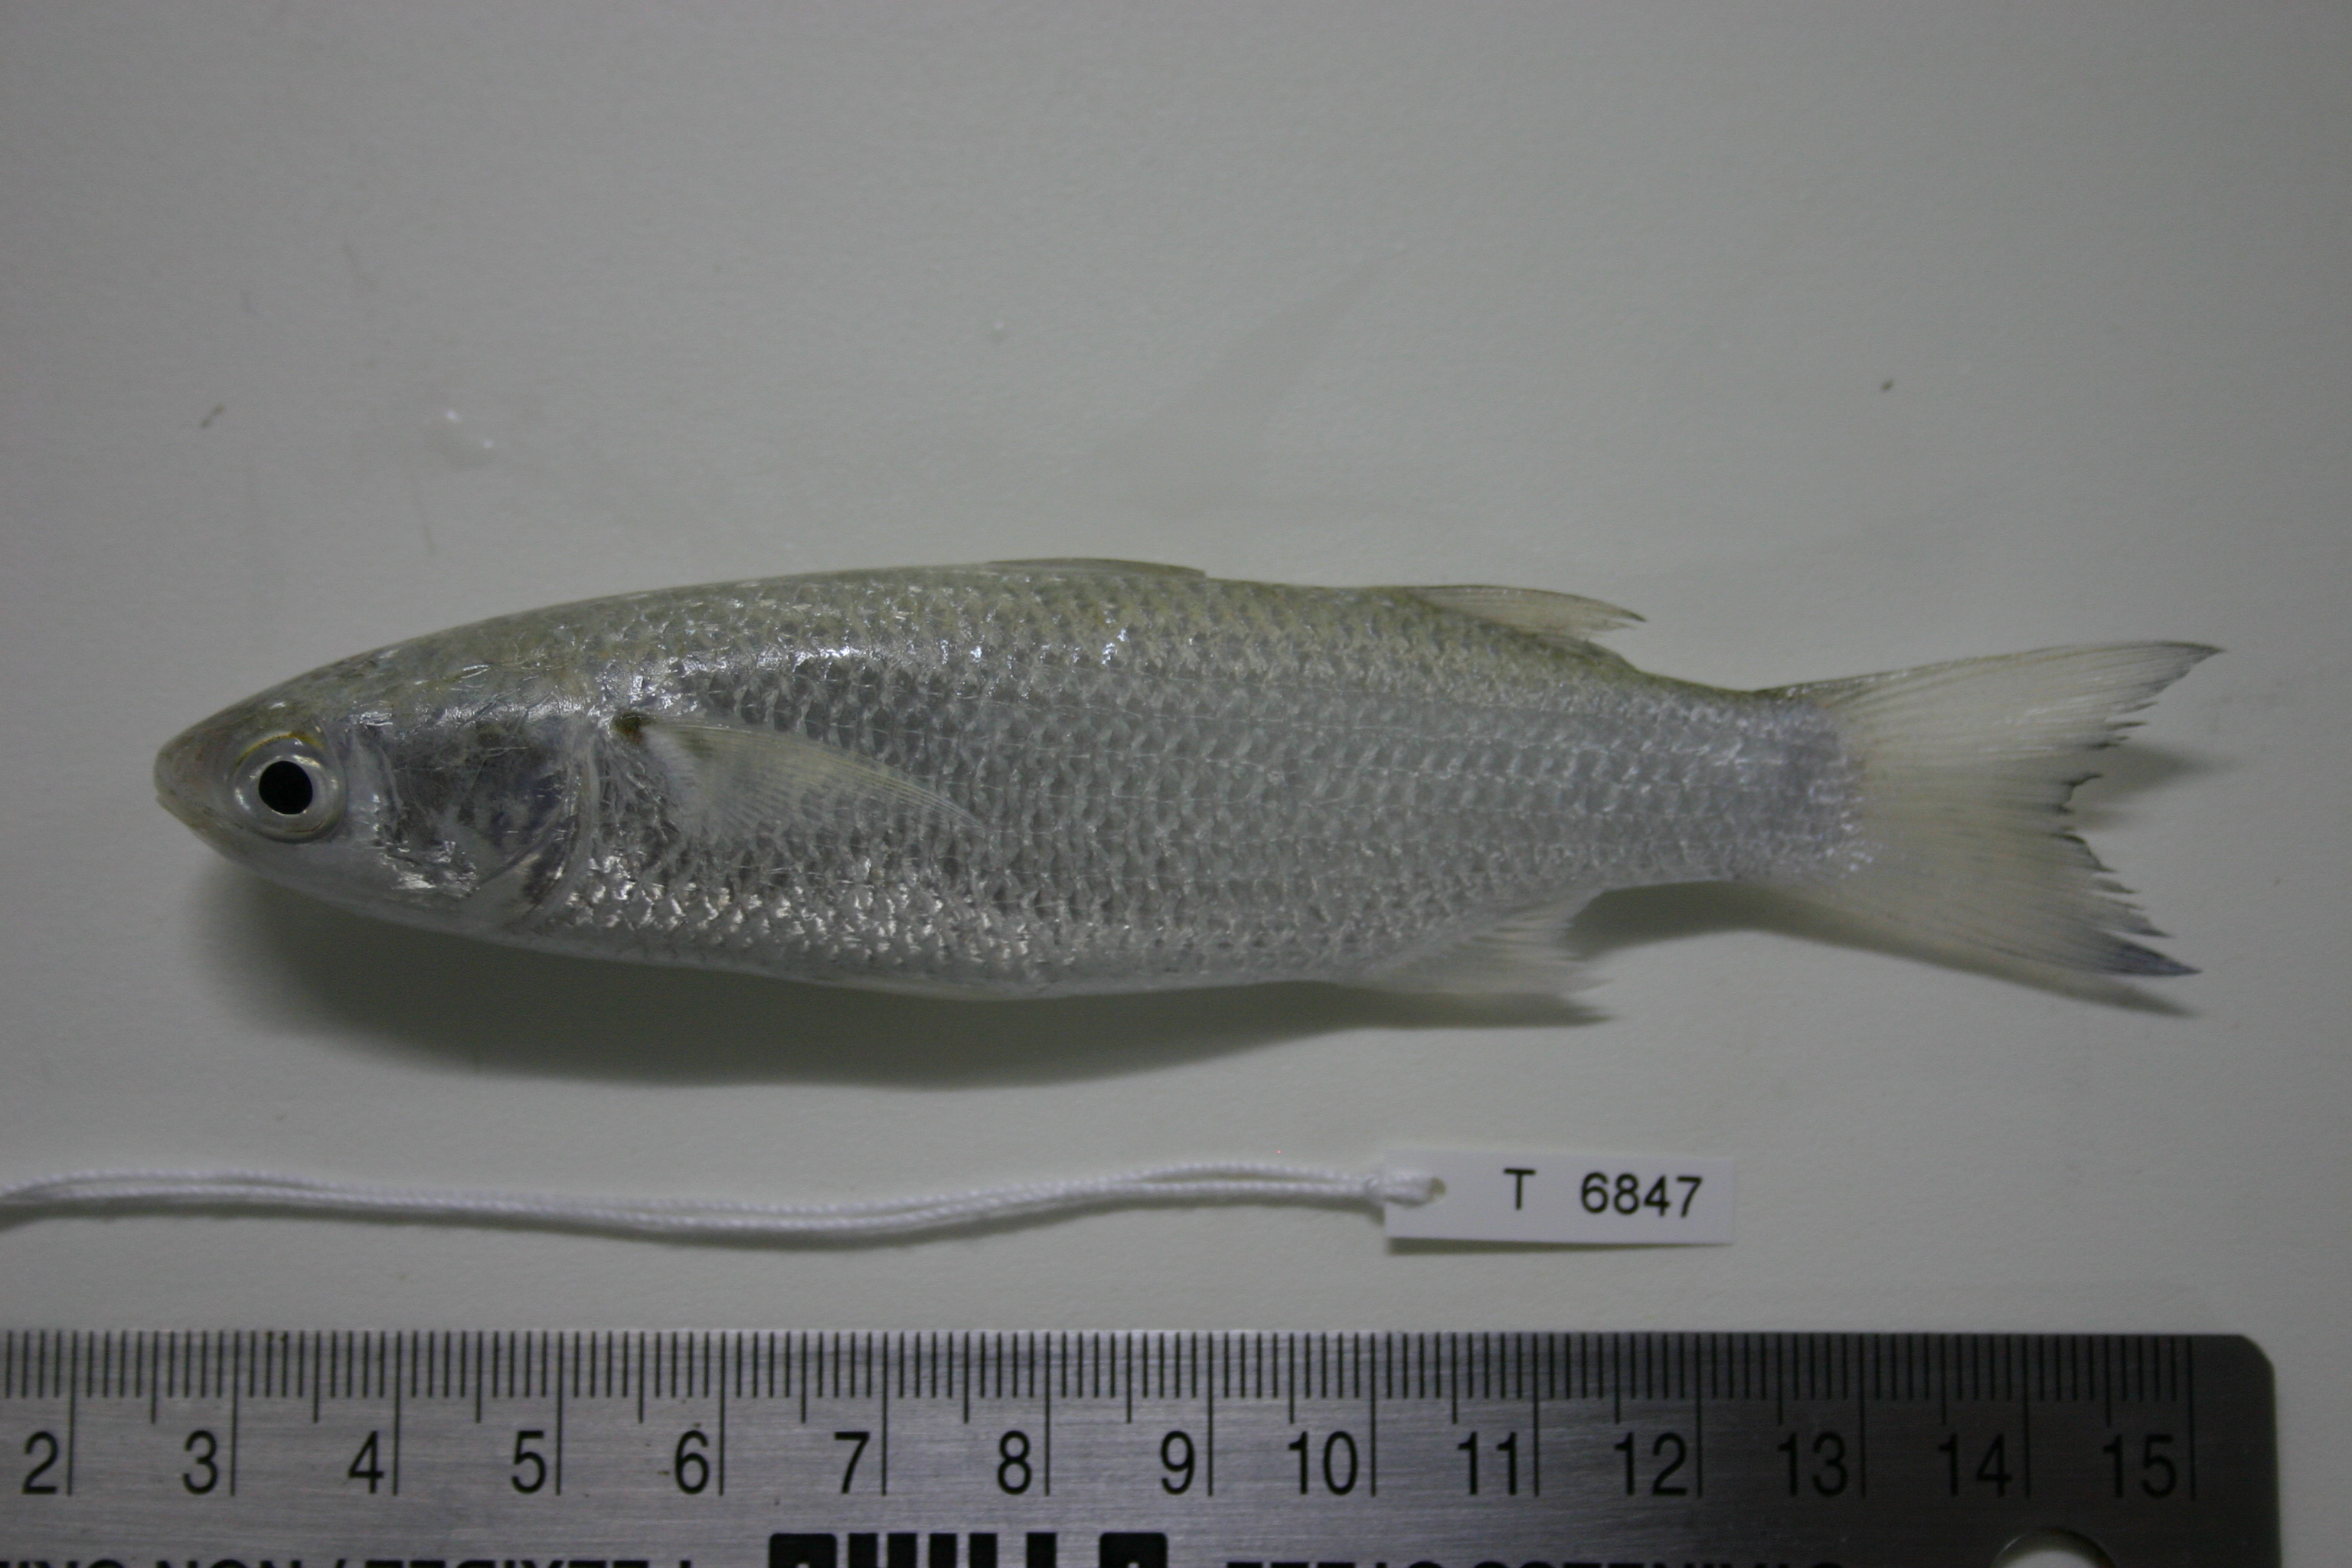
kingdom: Animalia
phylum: Chordata
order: Mugiliformes
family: Mugilidae
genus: Crenimugil
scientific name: Crenimugil seheli
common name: Bluespot mullet
